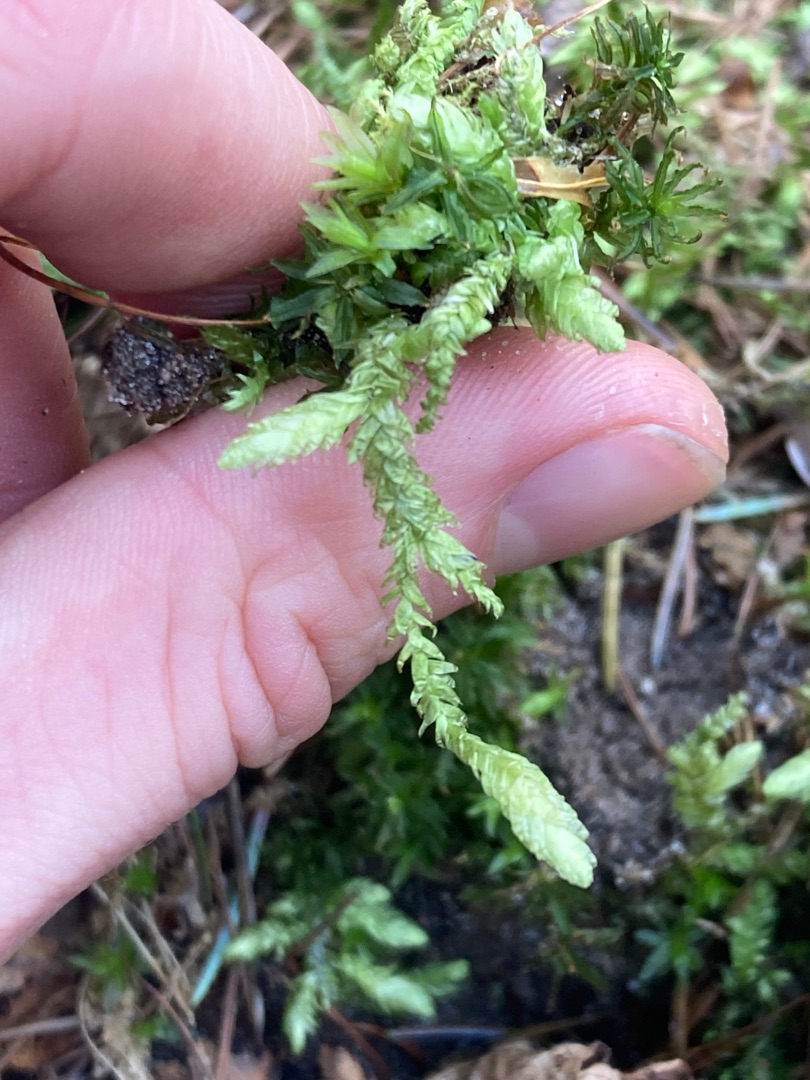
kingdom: Plantae
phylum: Bryophyta
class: Bryopsida
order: Hypnales
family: Plagiotheciaceae
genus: Plagiothecium
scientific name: Plagiothecium undulatum
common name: Bølget tæppemos
